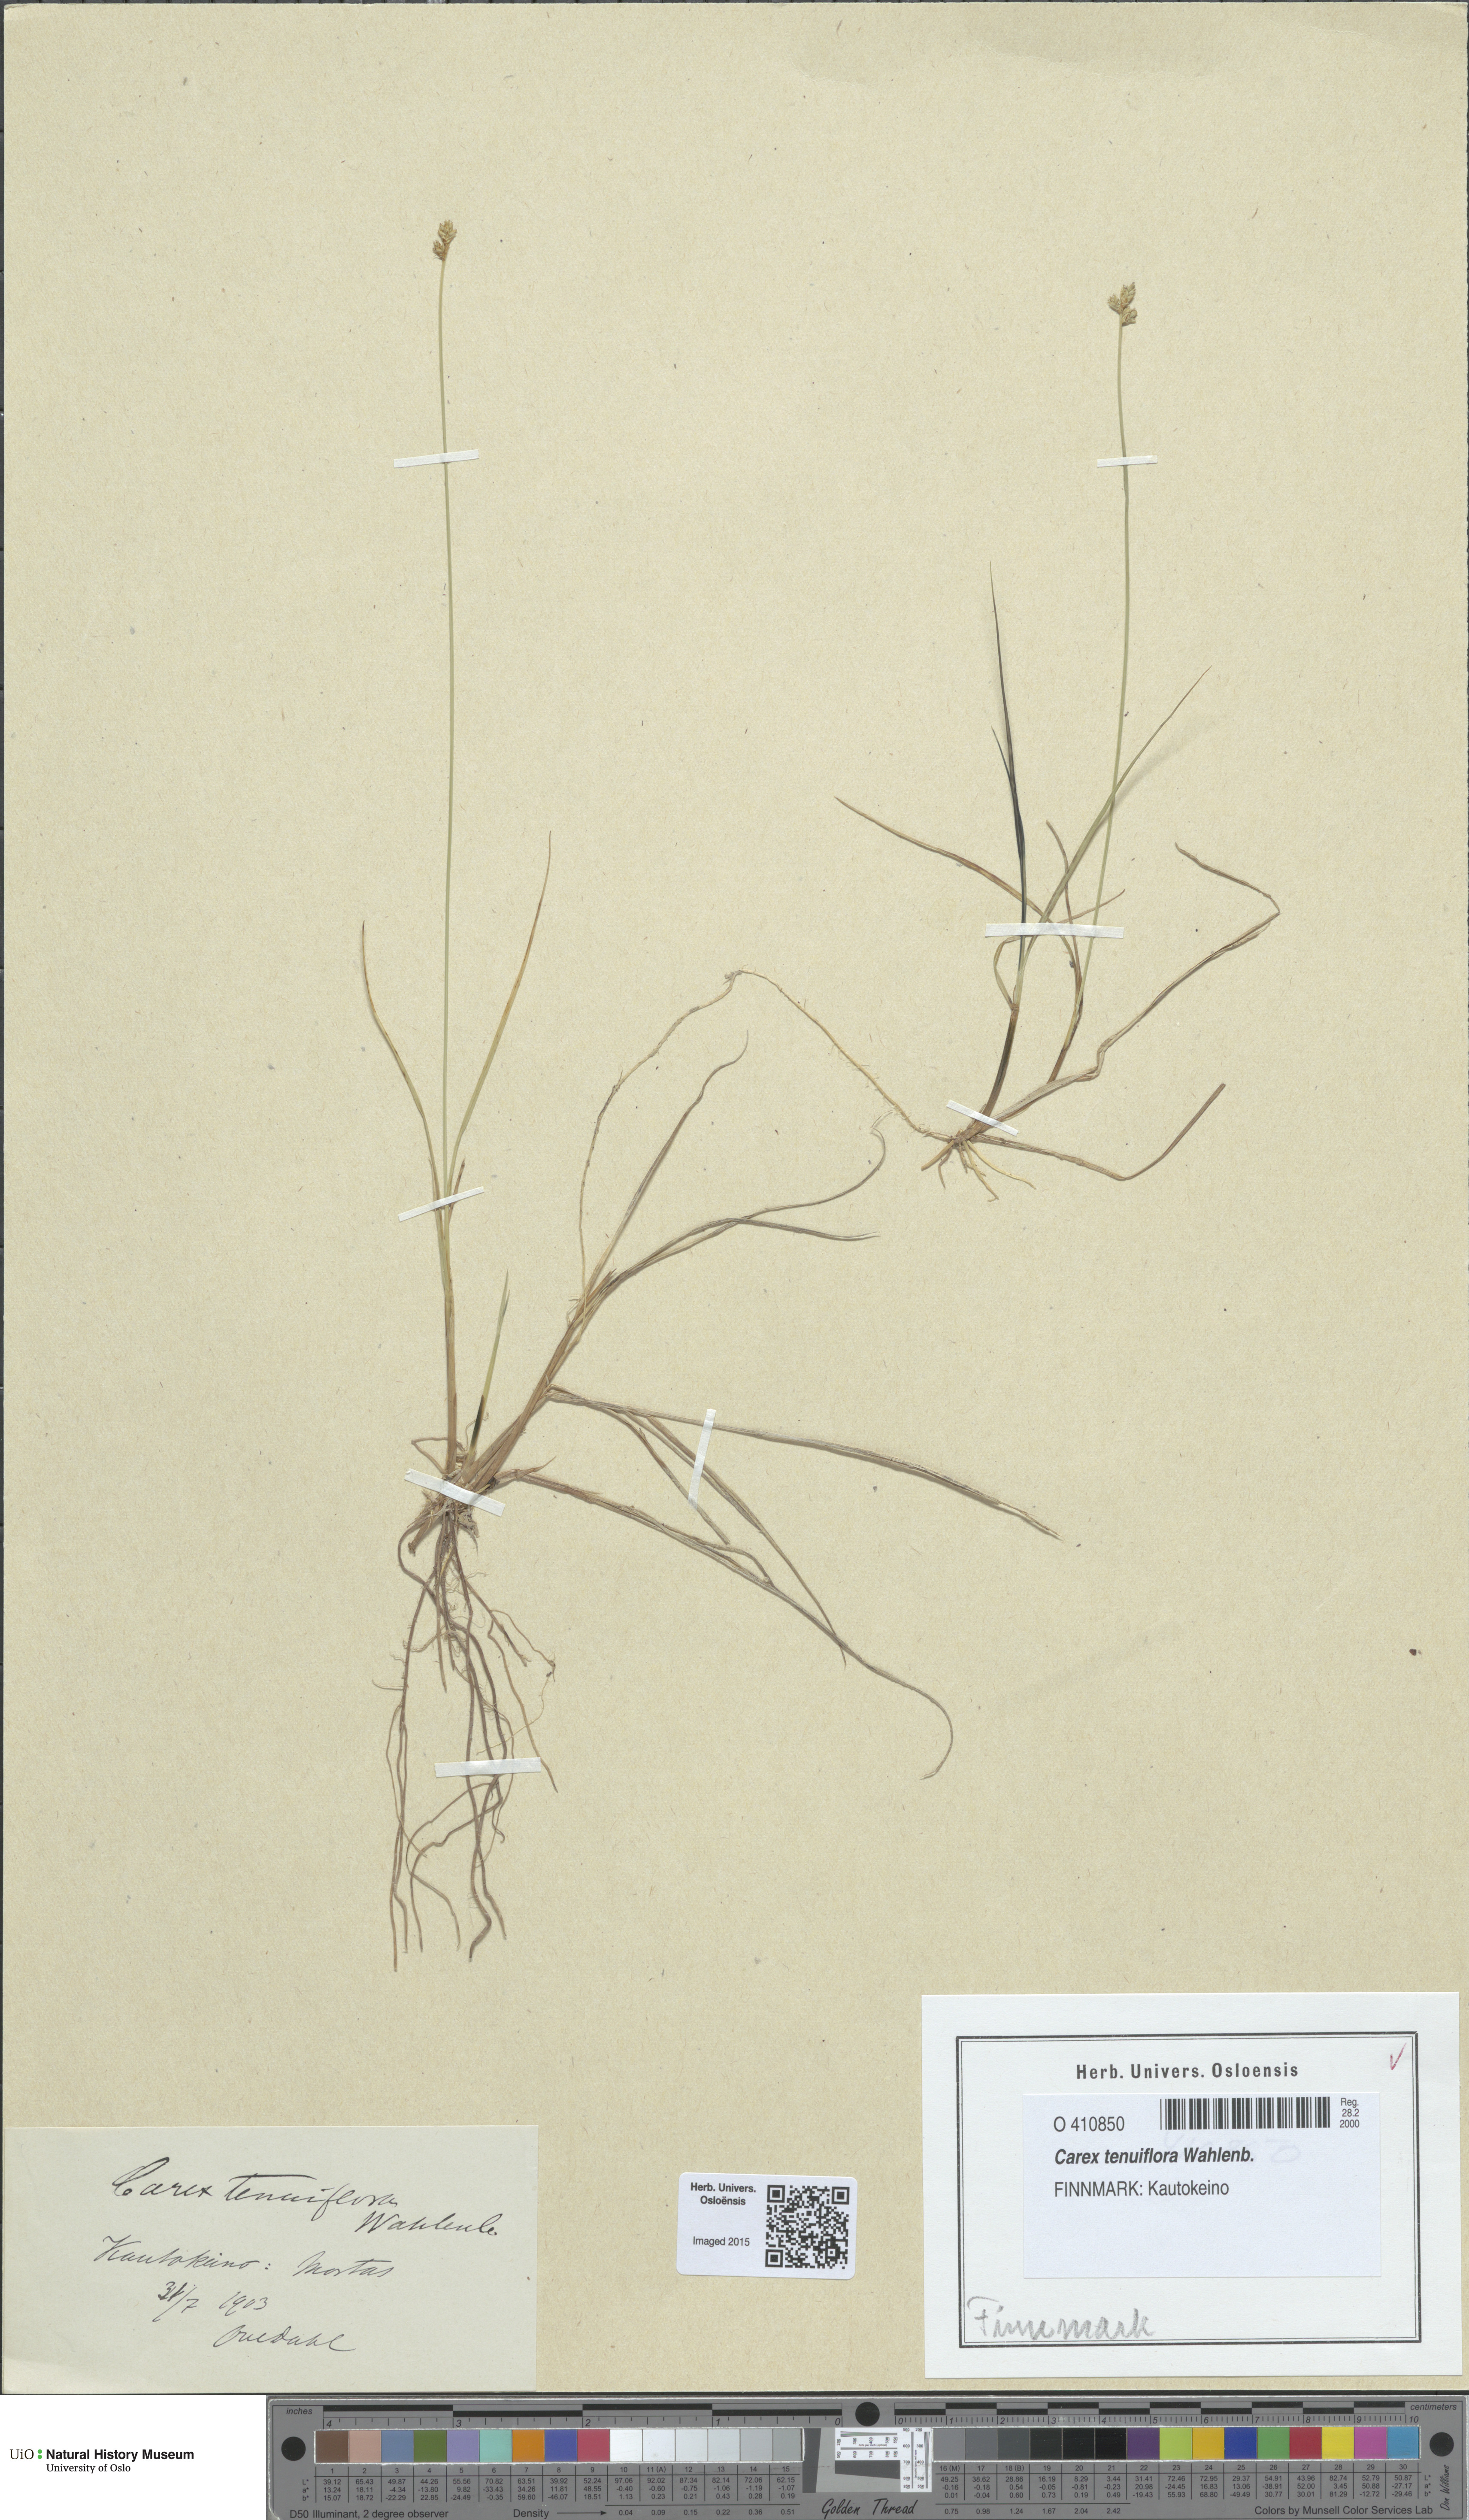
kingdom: Plantae
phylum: Tracheophyta
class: Liliopsida
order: Poales
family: Cyperaceae
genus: Carex
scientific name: Carex tenuiflora
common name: Sparse-flowered sedge
